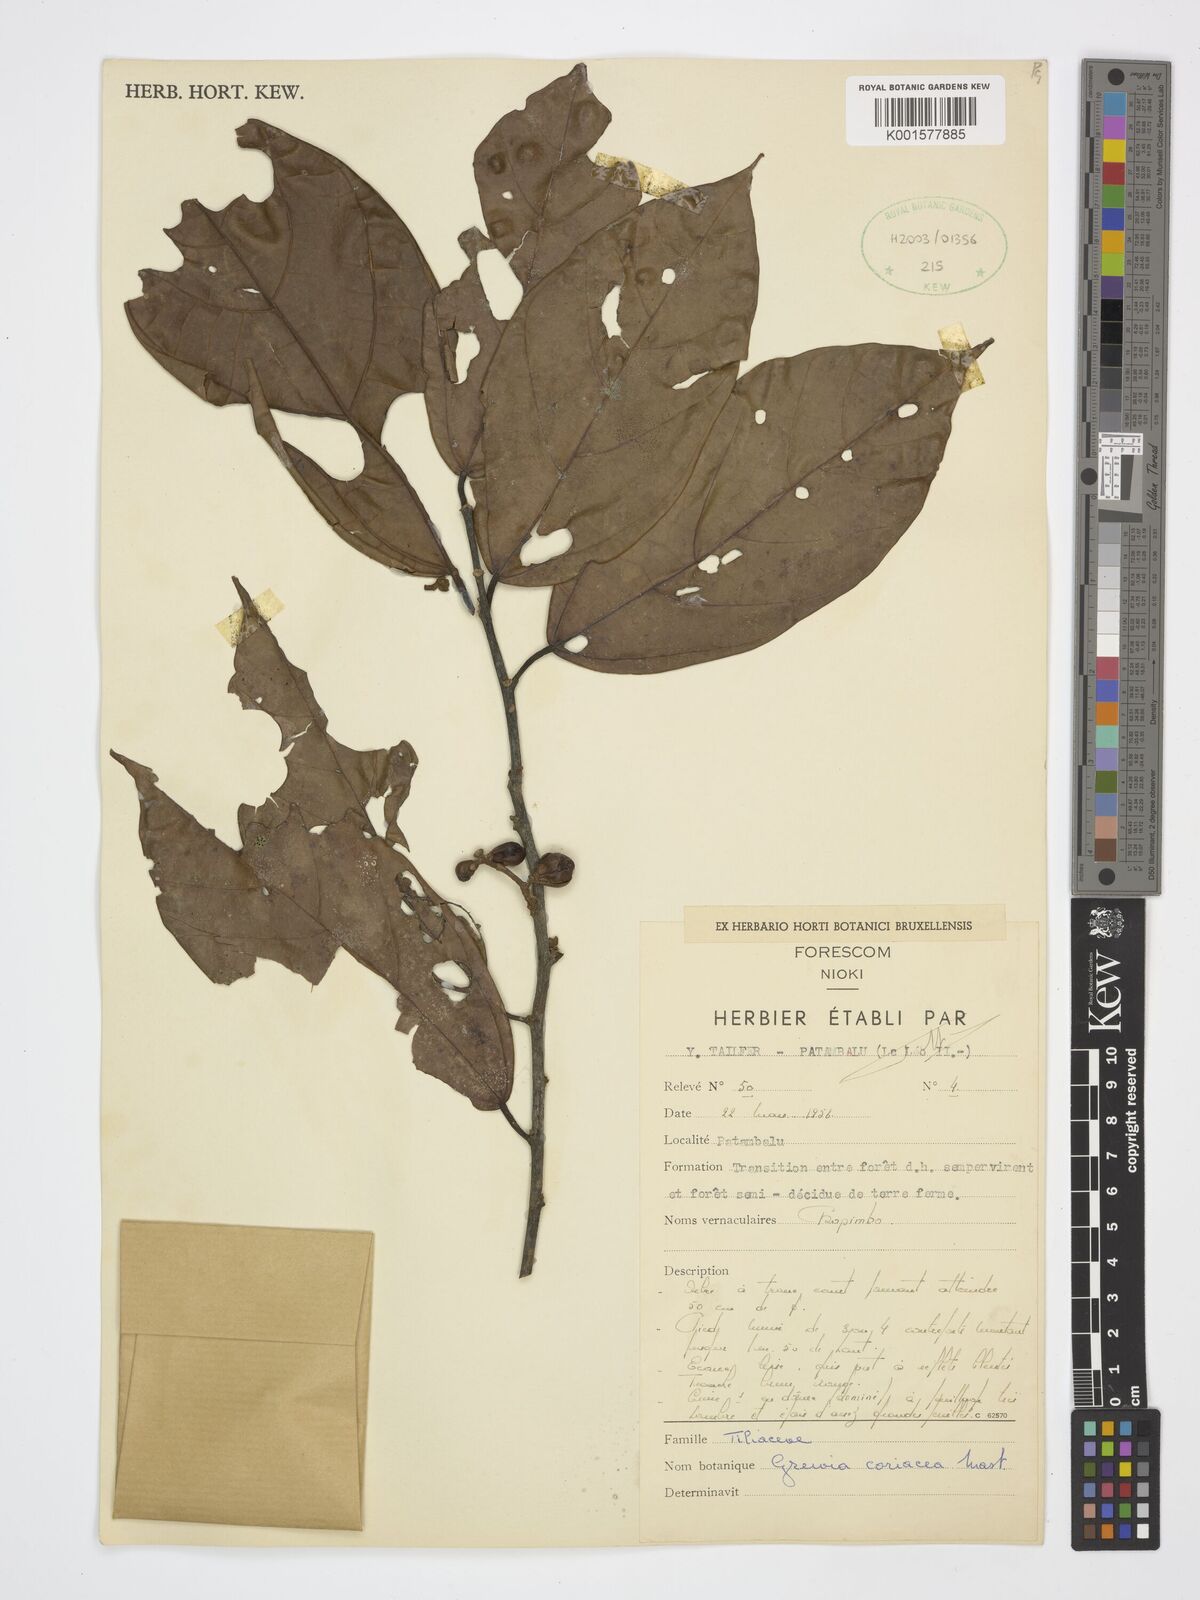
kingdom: Plantae
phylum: Tracheophyta
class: Magnoliopsida
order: Malvales
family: Malvaceae
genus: Microcos
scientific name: Microcos coriacea
